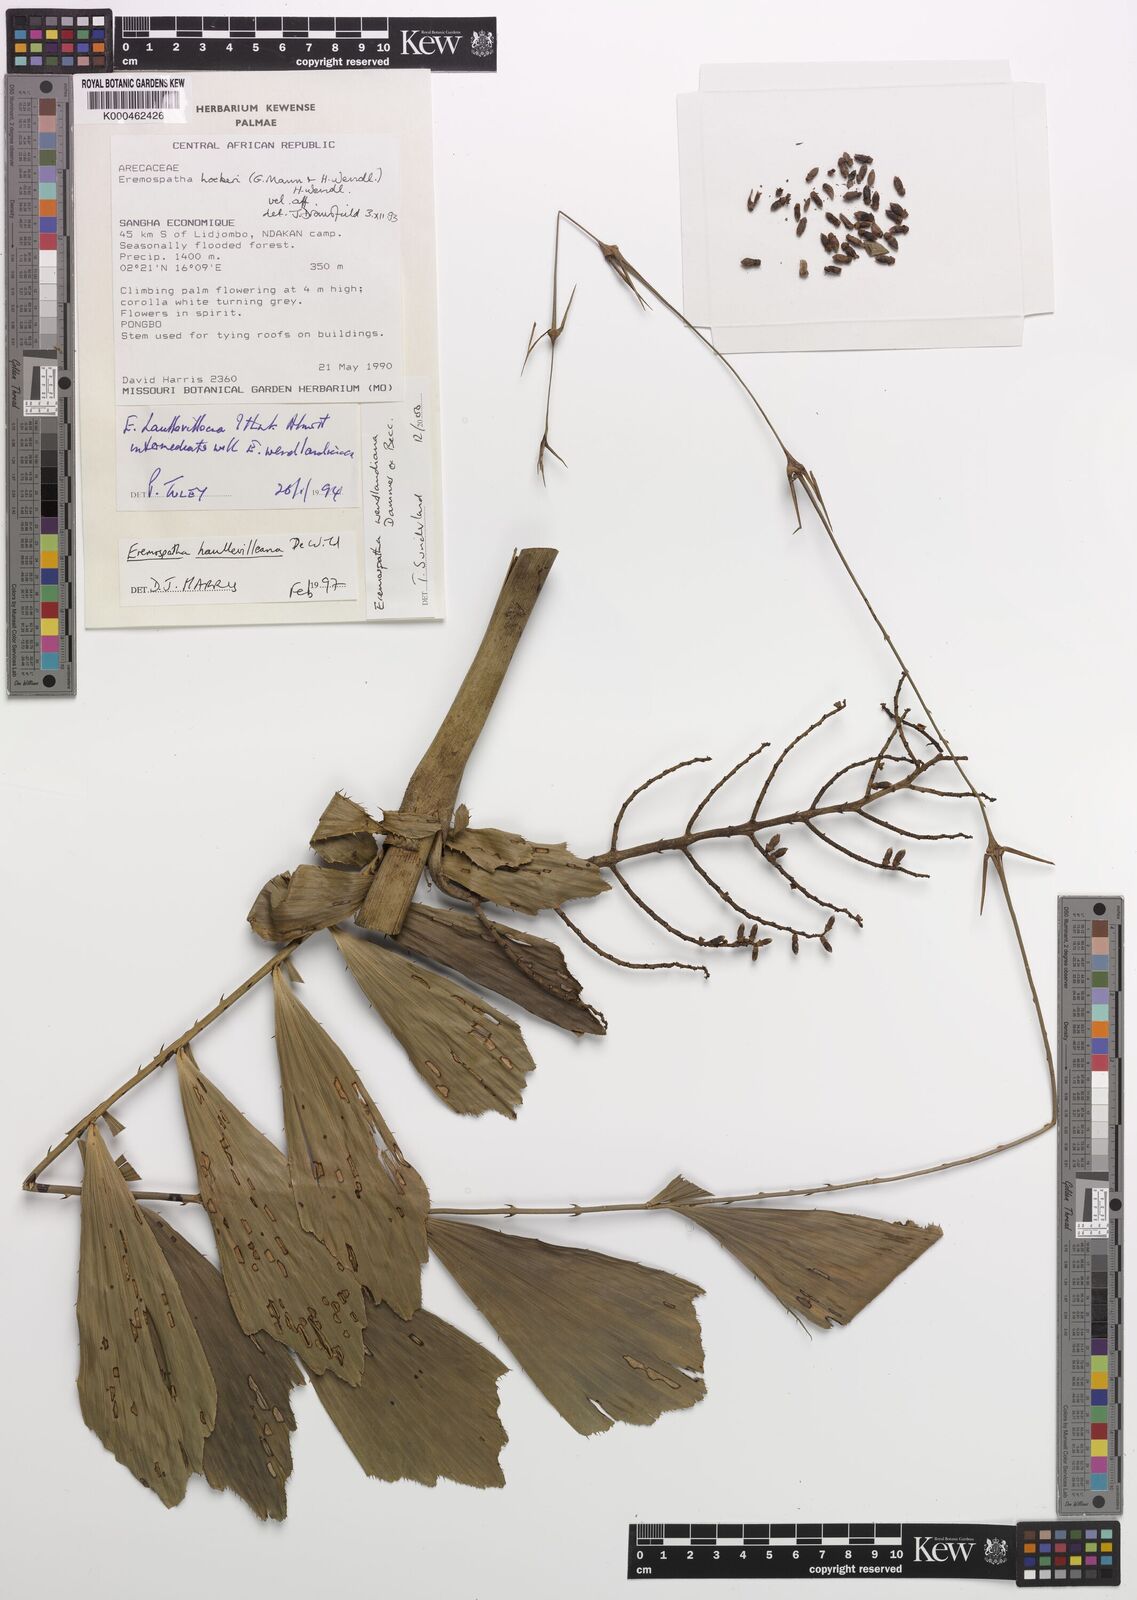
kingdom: Plantae
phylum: Tracheophyta
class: Liliopsida
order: Arecales
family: Arecaceae
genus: Eremospatha
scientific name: Eremospatha wendlandiana
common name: Rattan
